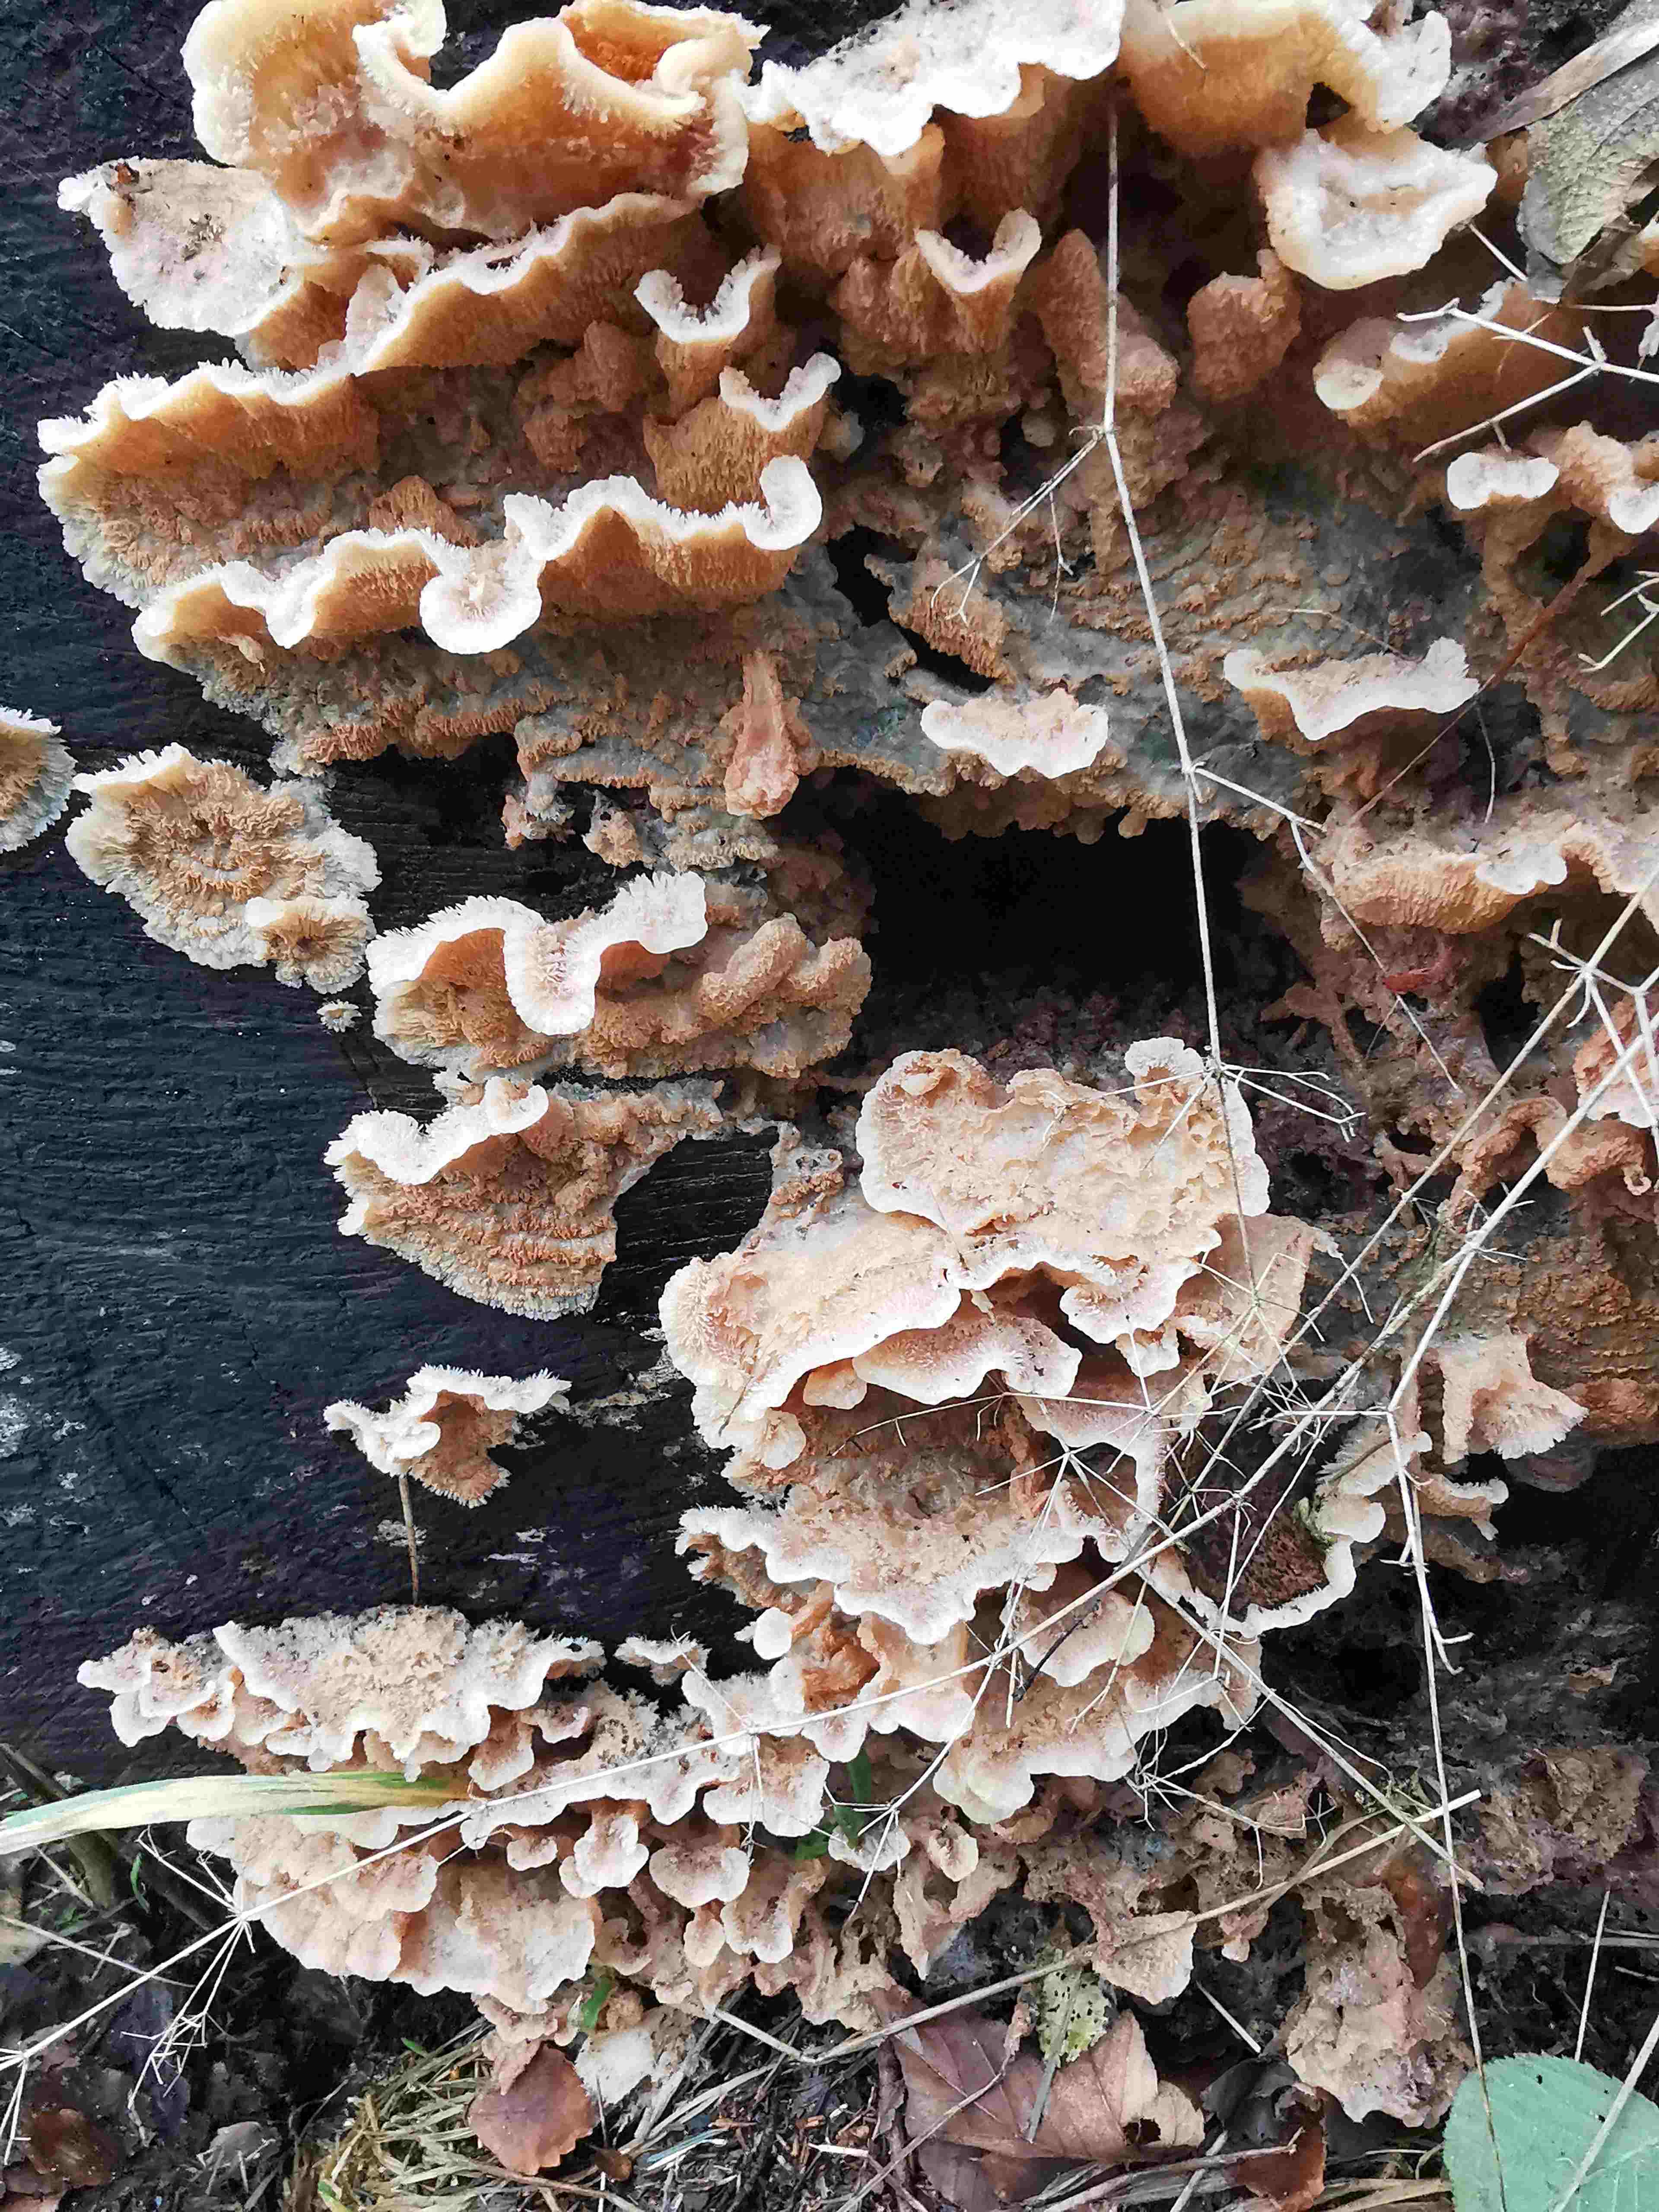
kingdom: Fungi
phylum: Basidiomycota
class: Agaricomycetes
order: Polyporales
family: Meruliaceae
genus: Phlebia
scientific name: Phlebia tremellosa
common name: bævrende åresvamp
